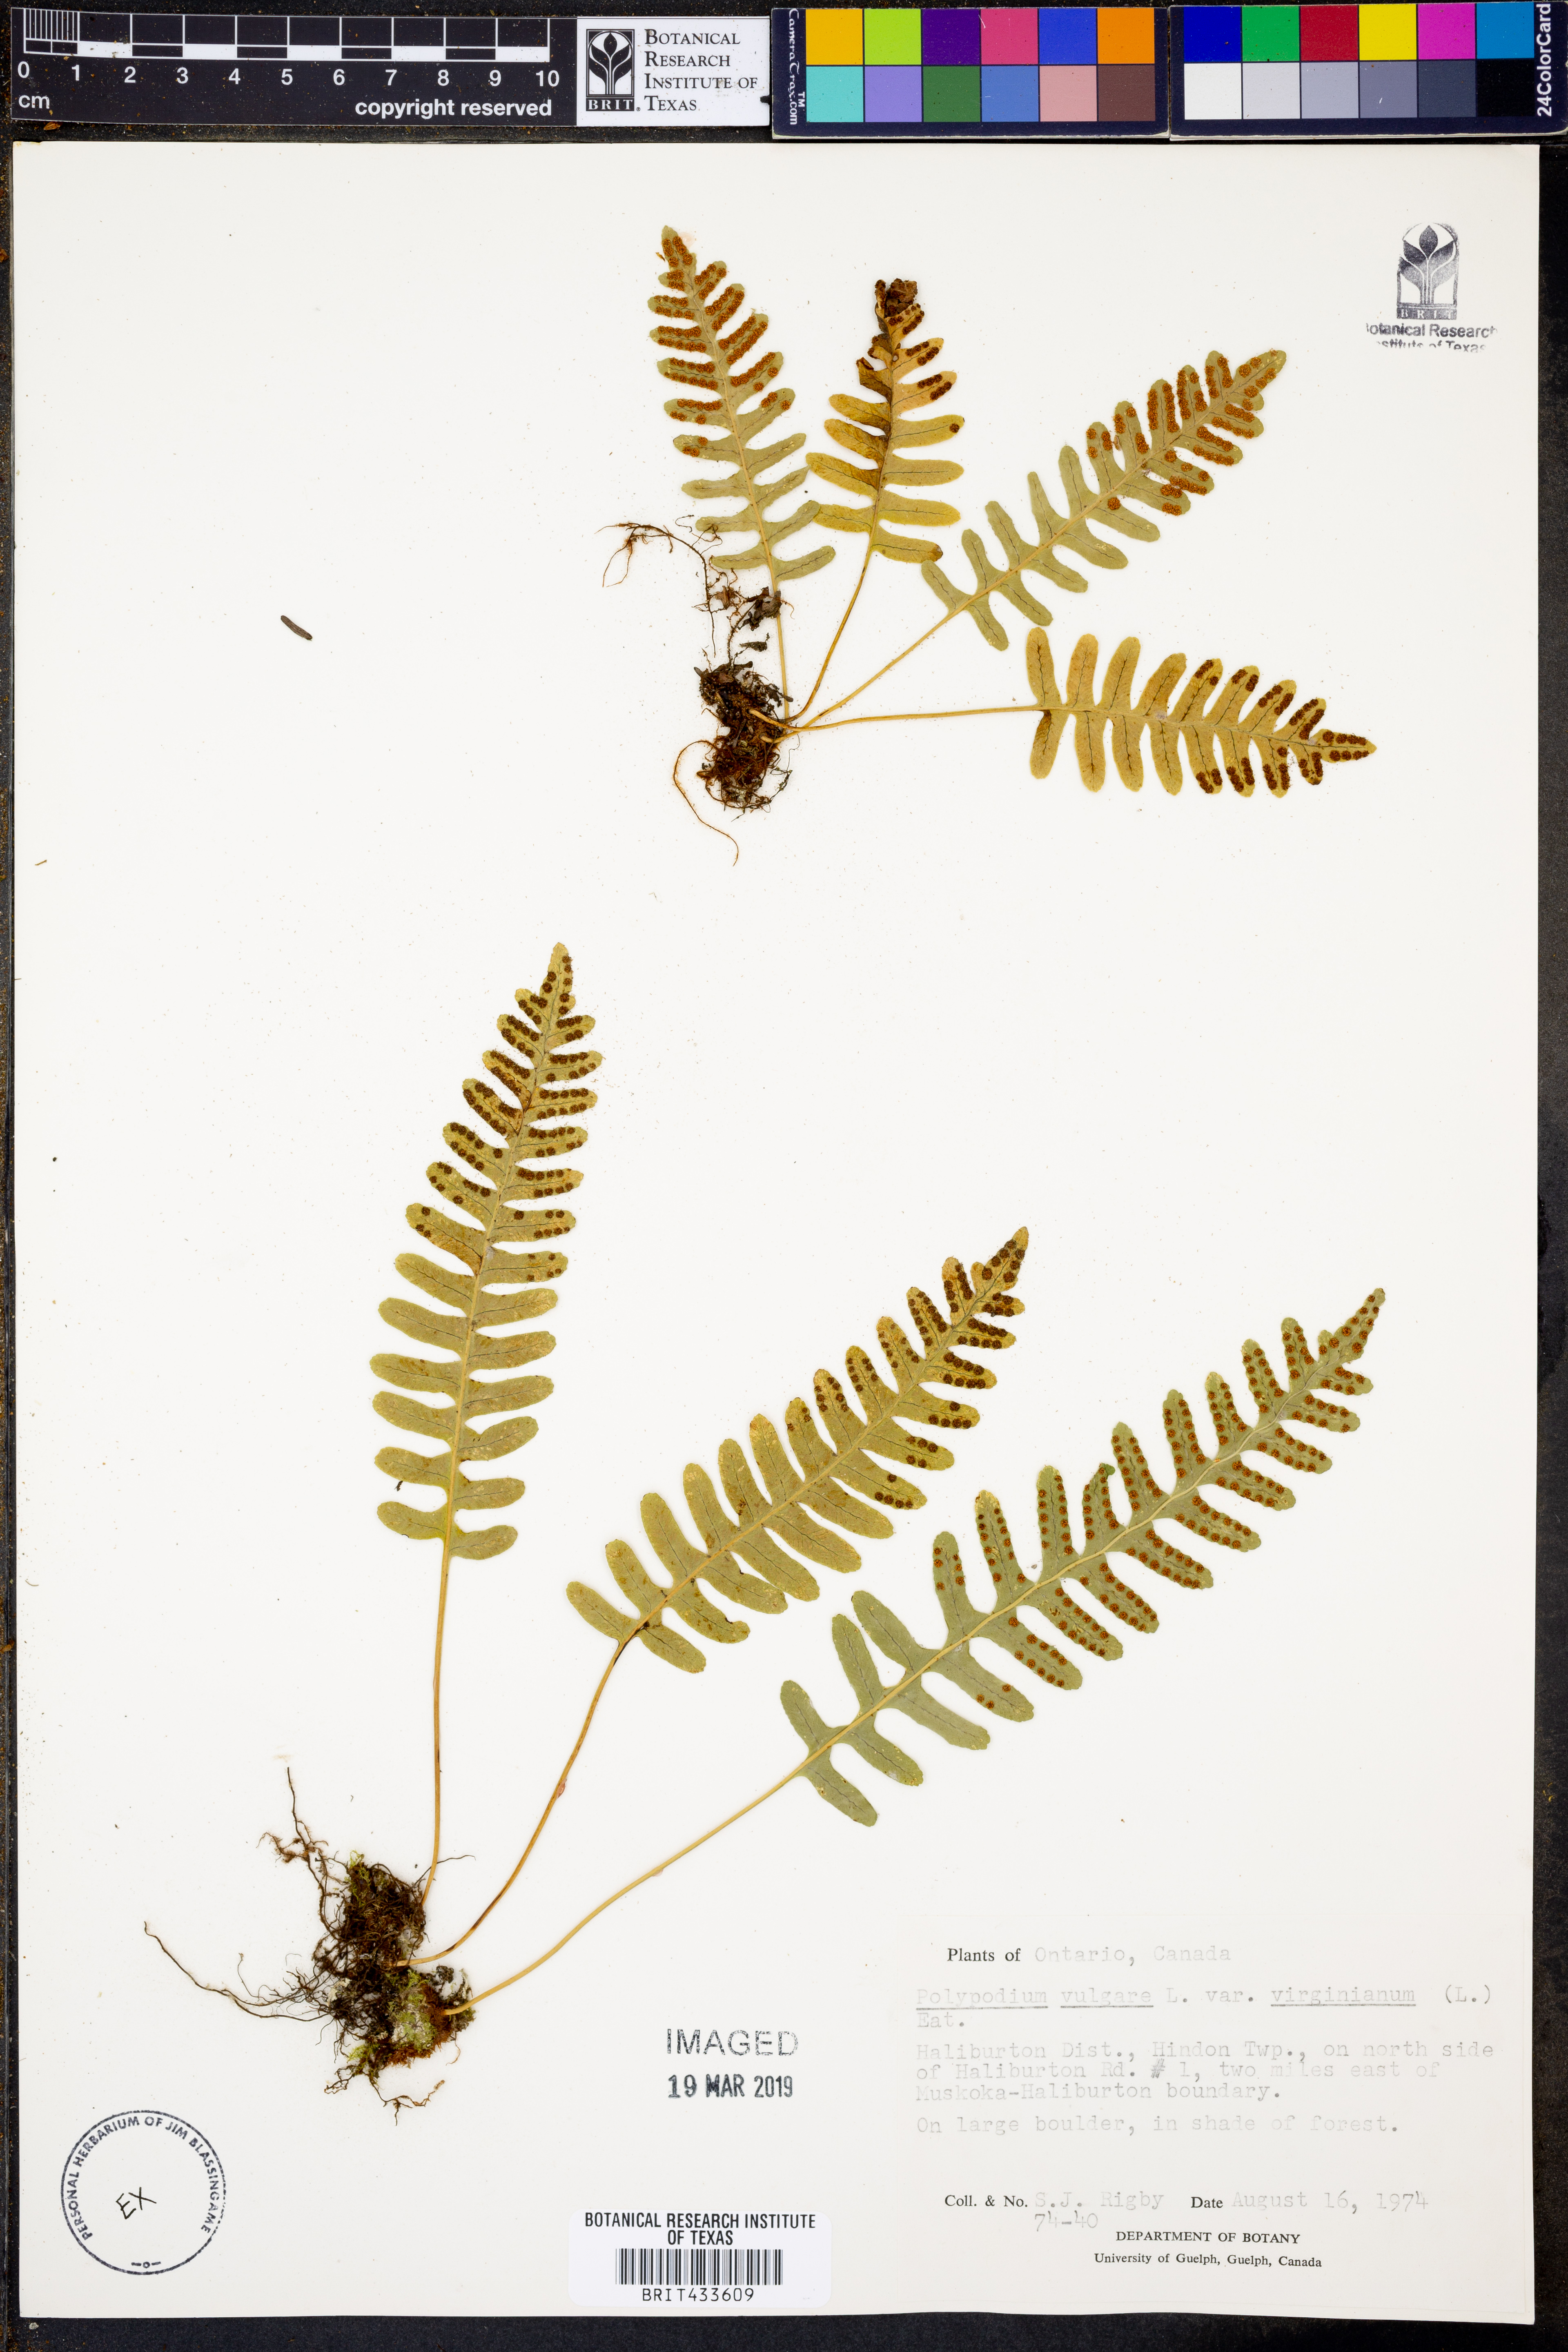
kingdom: Plantae
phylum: Tracheophyta
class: Polypodiopsida
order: Polypodiales
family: Polypodiaceae
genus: Polypodium
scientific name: Polypodium virginianum
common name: American wall fern
